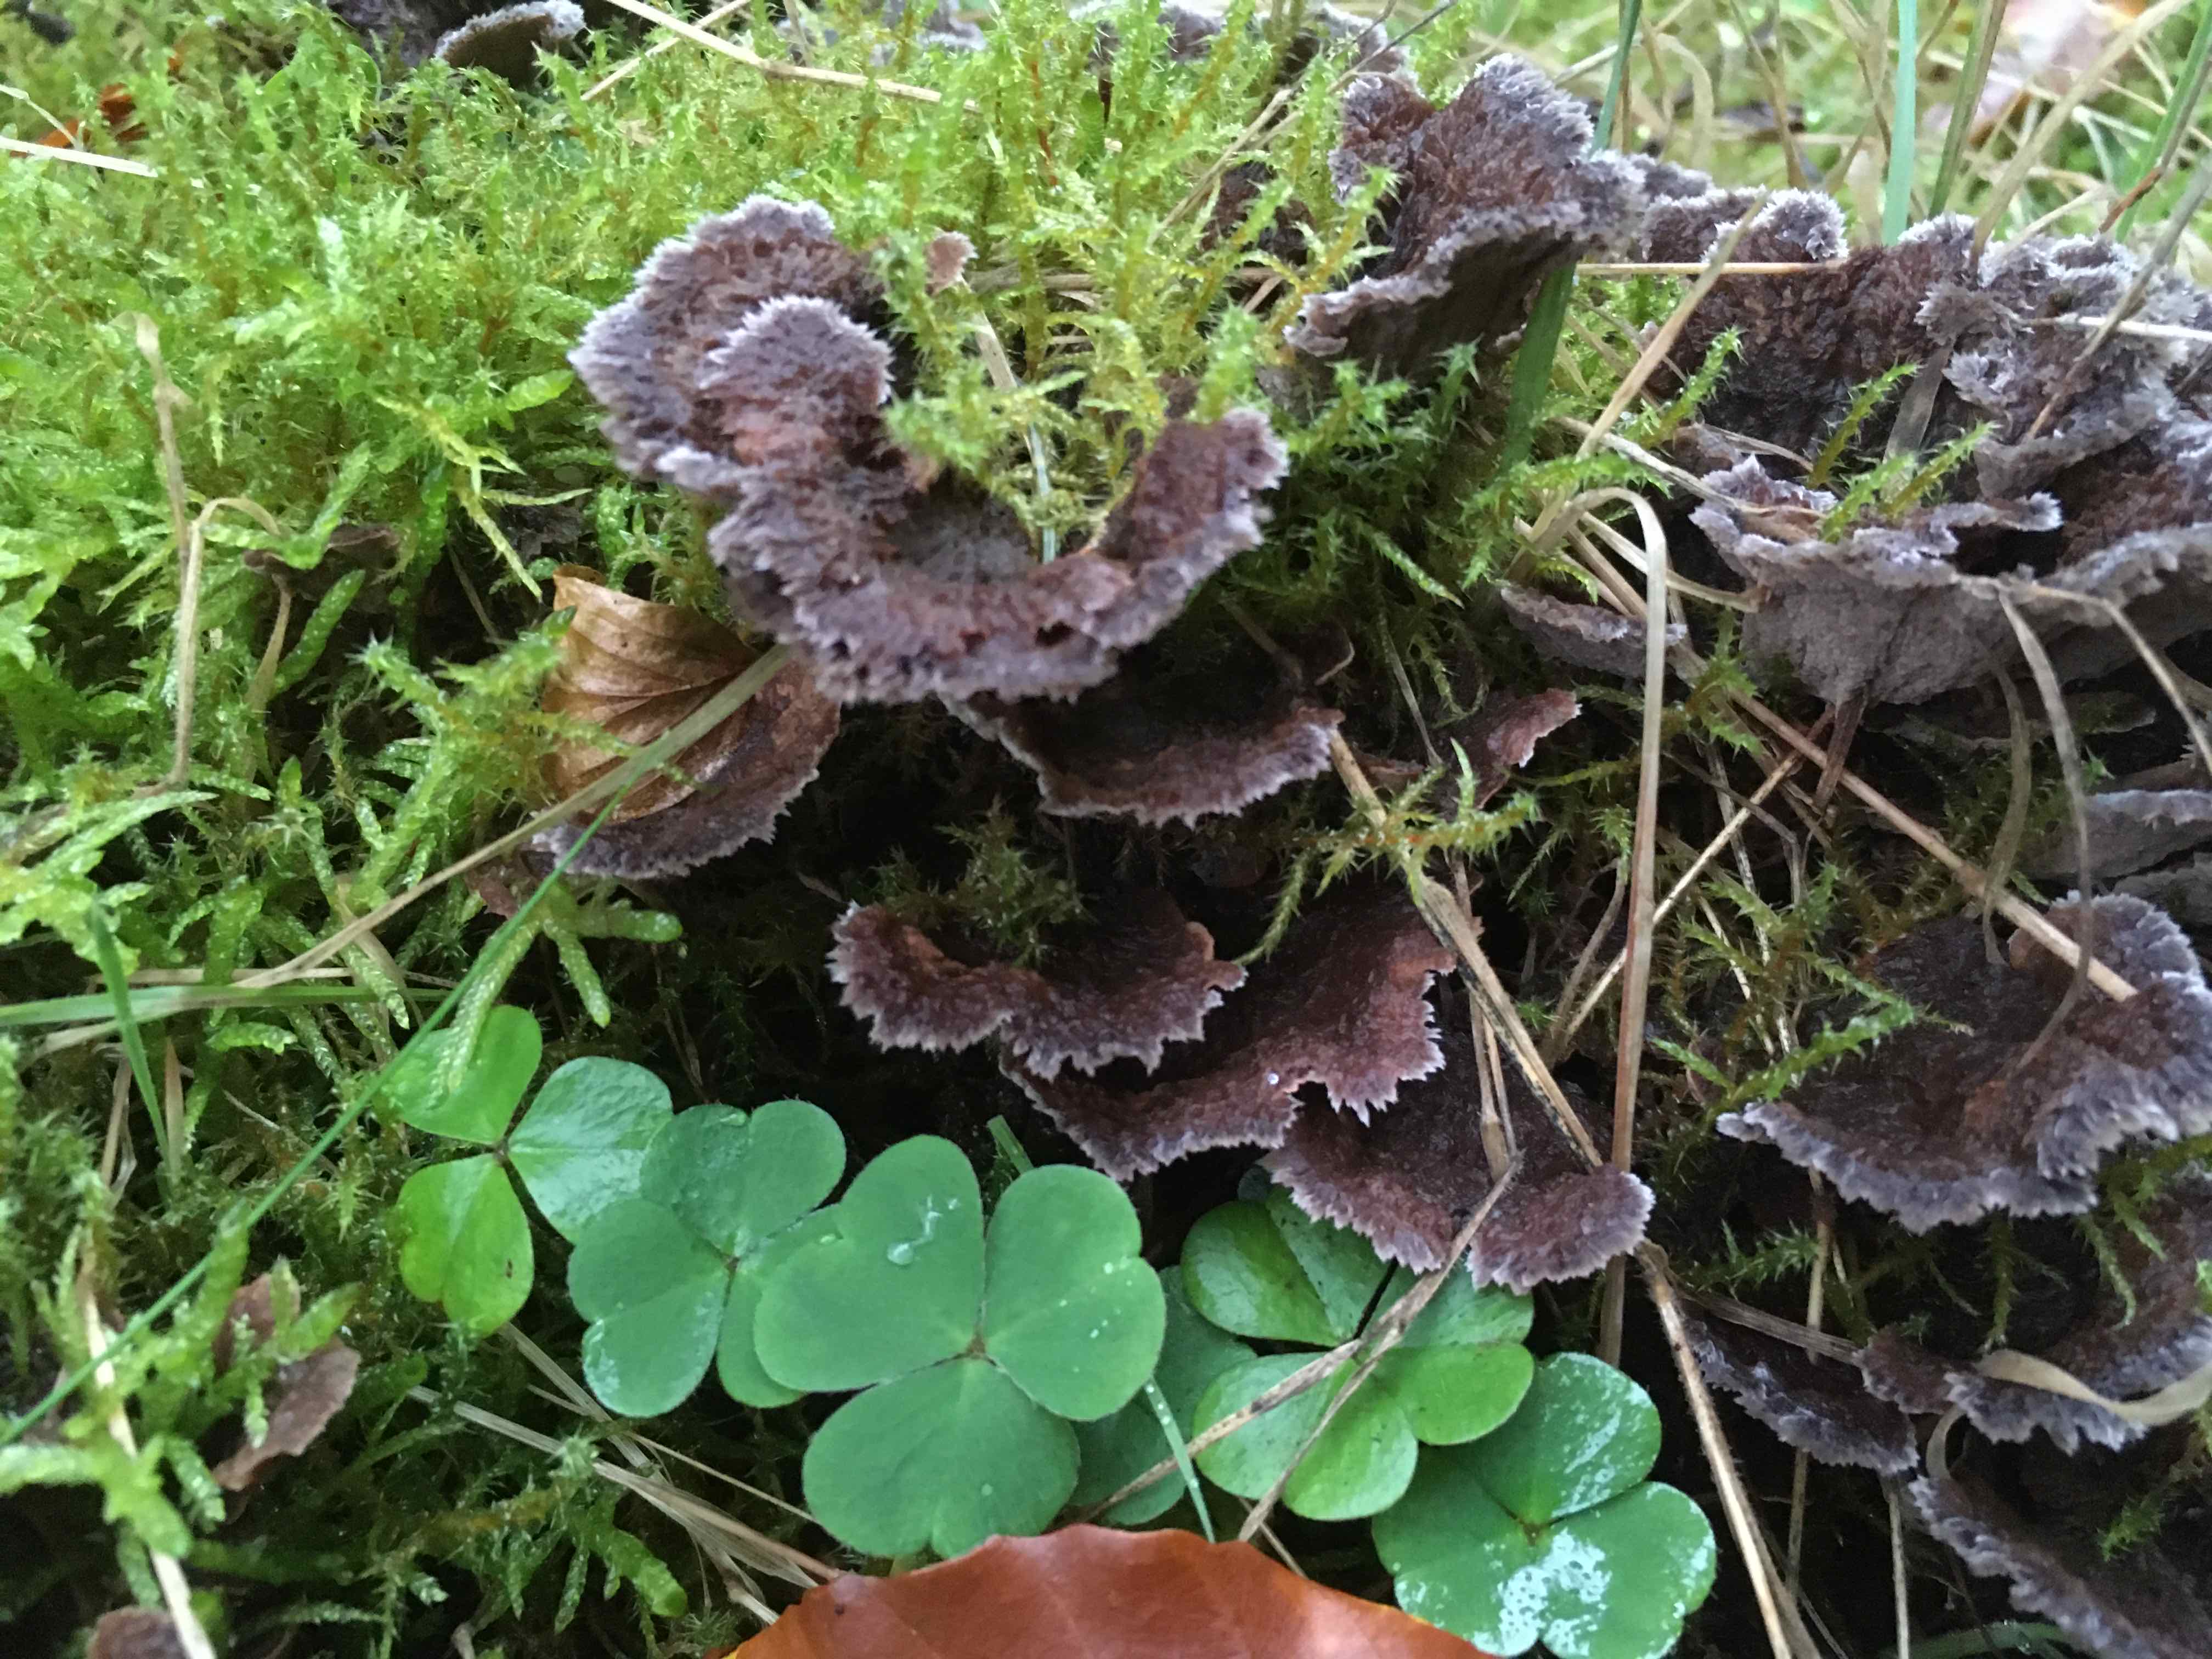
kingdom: Fungi
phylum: Basidiomycota
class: Agaricomycetes
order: Thelephorales
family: Thelephoraceae
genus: Thelephora
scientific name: Thelephora terrestris
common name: fliget frynsesvamp
